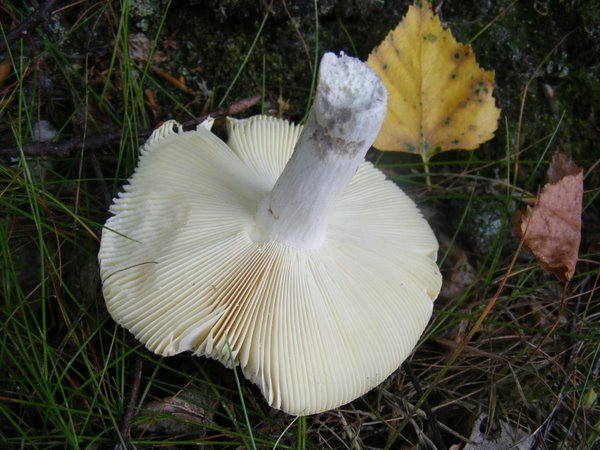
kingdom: Fungi
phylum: Basidiomycota
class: Agaricomycetes
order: Russulales
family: Russulaceae
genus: Russula
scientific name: Russula claroflava
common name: birke-skørhat
